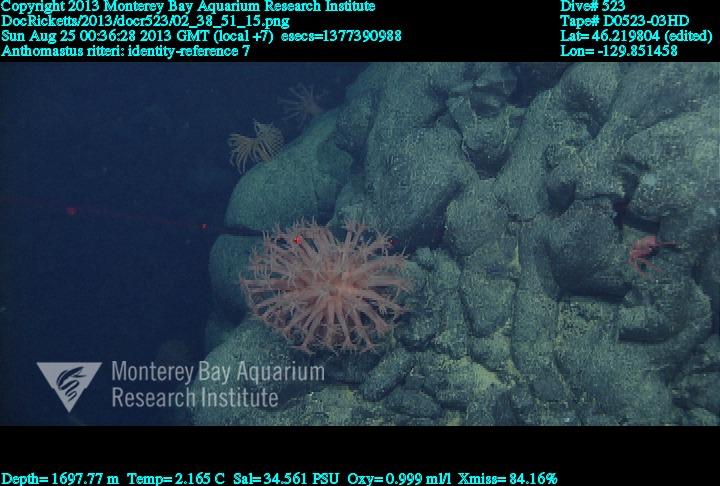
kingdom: Animalia
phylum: Cnidaria
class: Anthozoa
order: Scleralcyonacea
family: Coralliidae
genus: Heteropolypus
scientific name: Heteropolypus ritteri
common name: Ritter's soft coral
